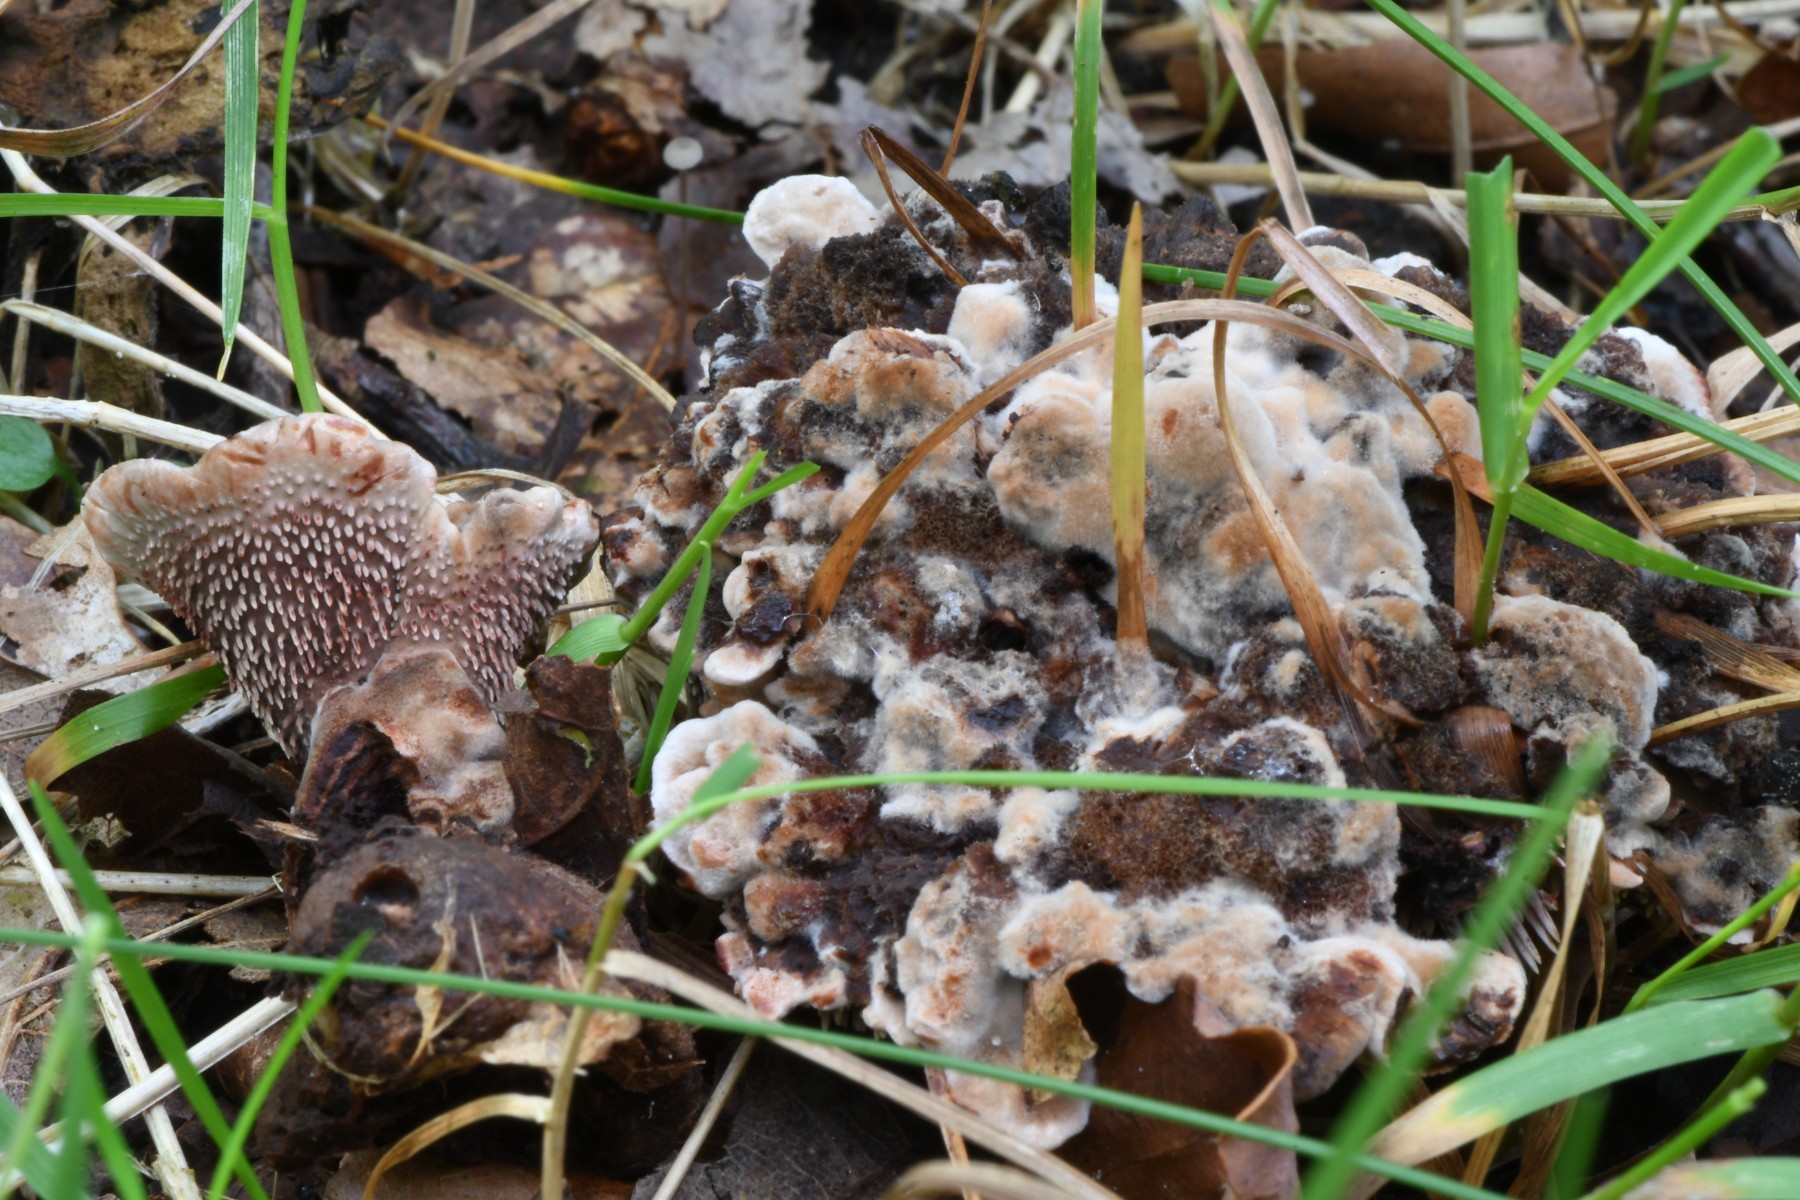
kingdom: Fungi
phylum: Basidiomycota
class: Agaricomycetes
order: Thelephorales
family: Bankeraceae
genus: Hydnellum
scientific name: Hydnellum spongiosipes
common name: filtet korkpigsvamp
